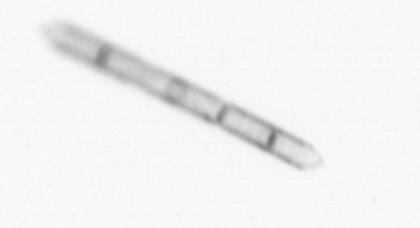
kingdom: Chromista
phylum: Ochrophyta
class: Bacillariophyceae
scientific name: Bacillariophyceae
